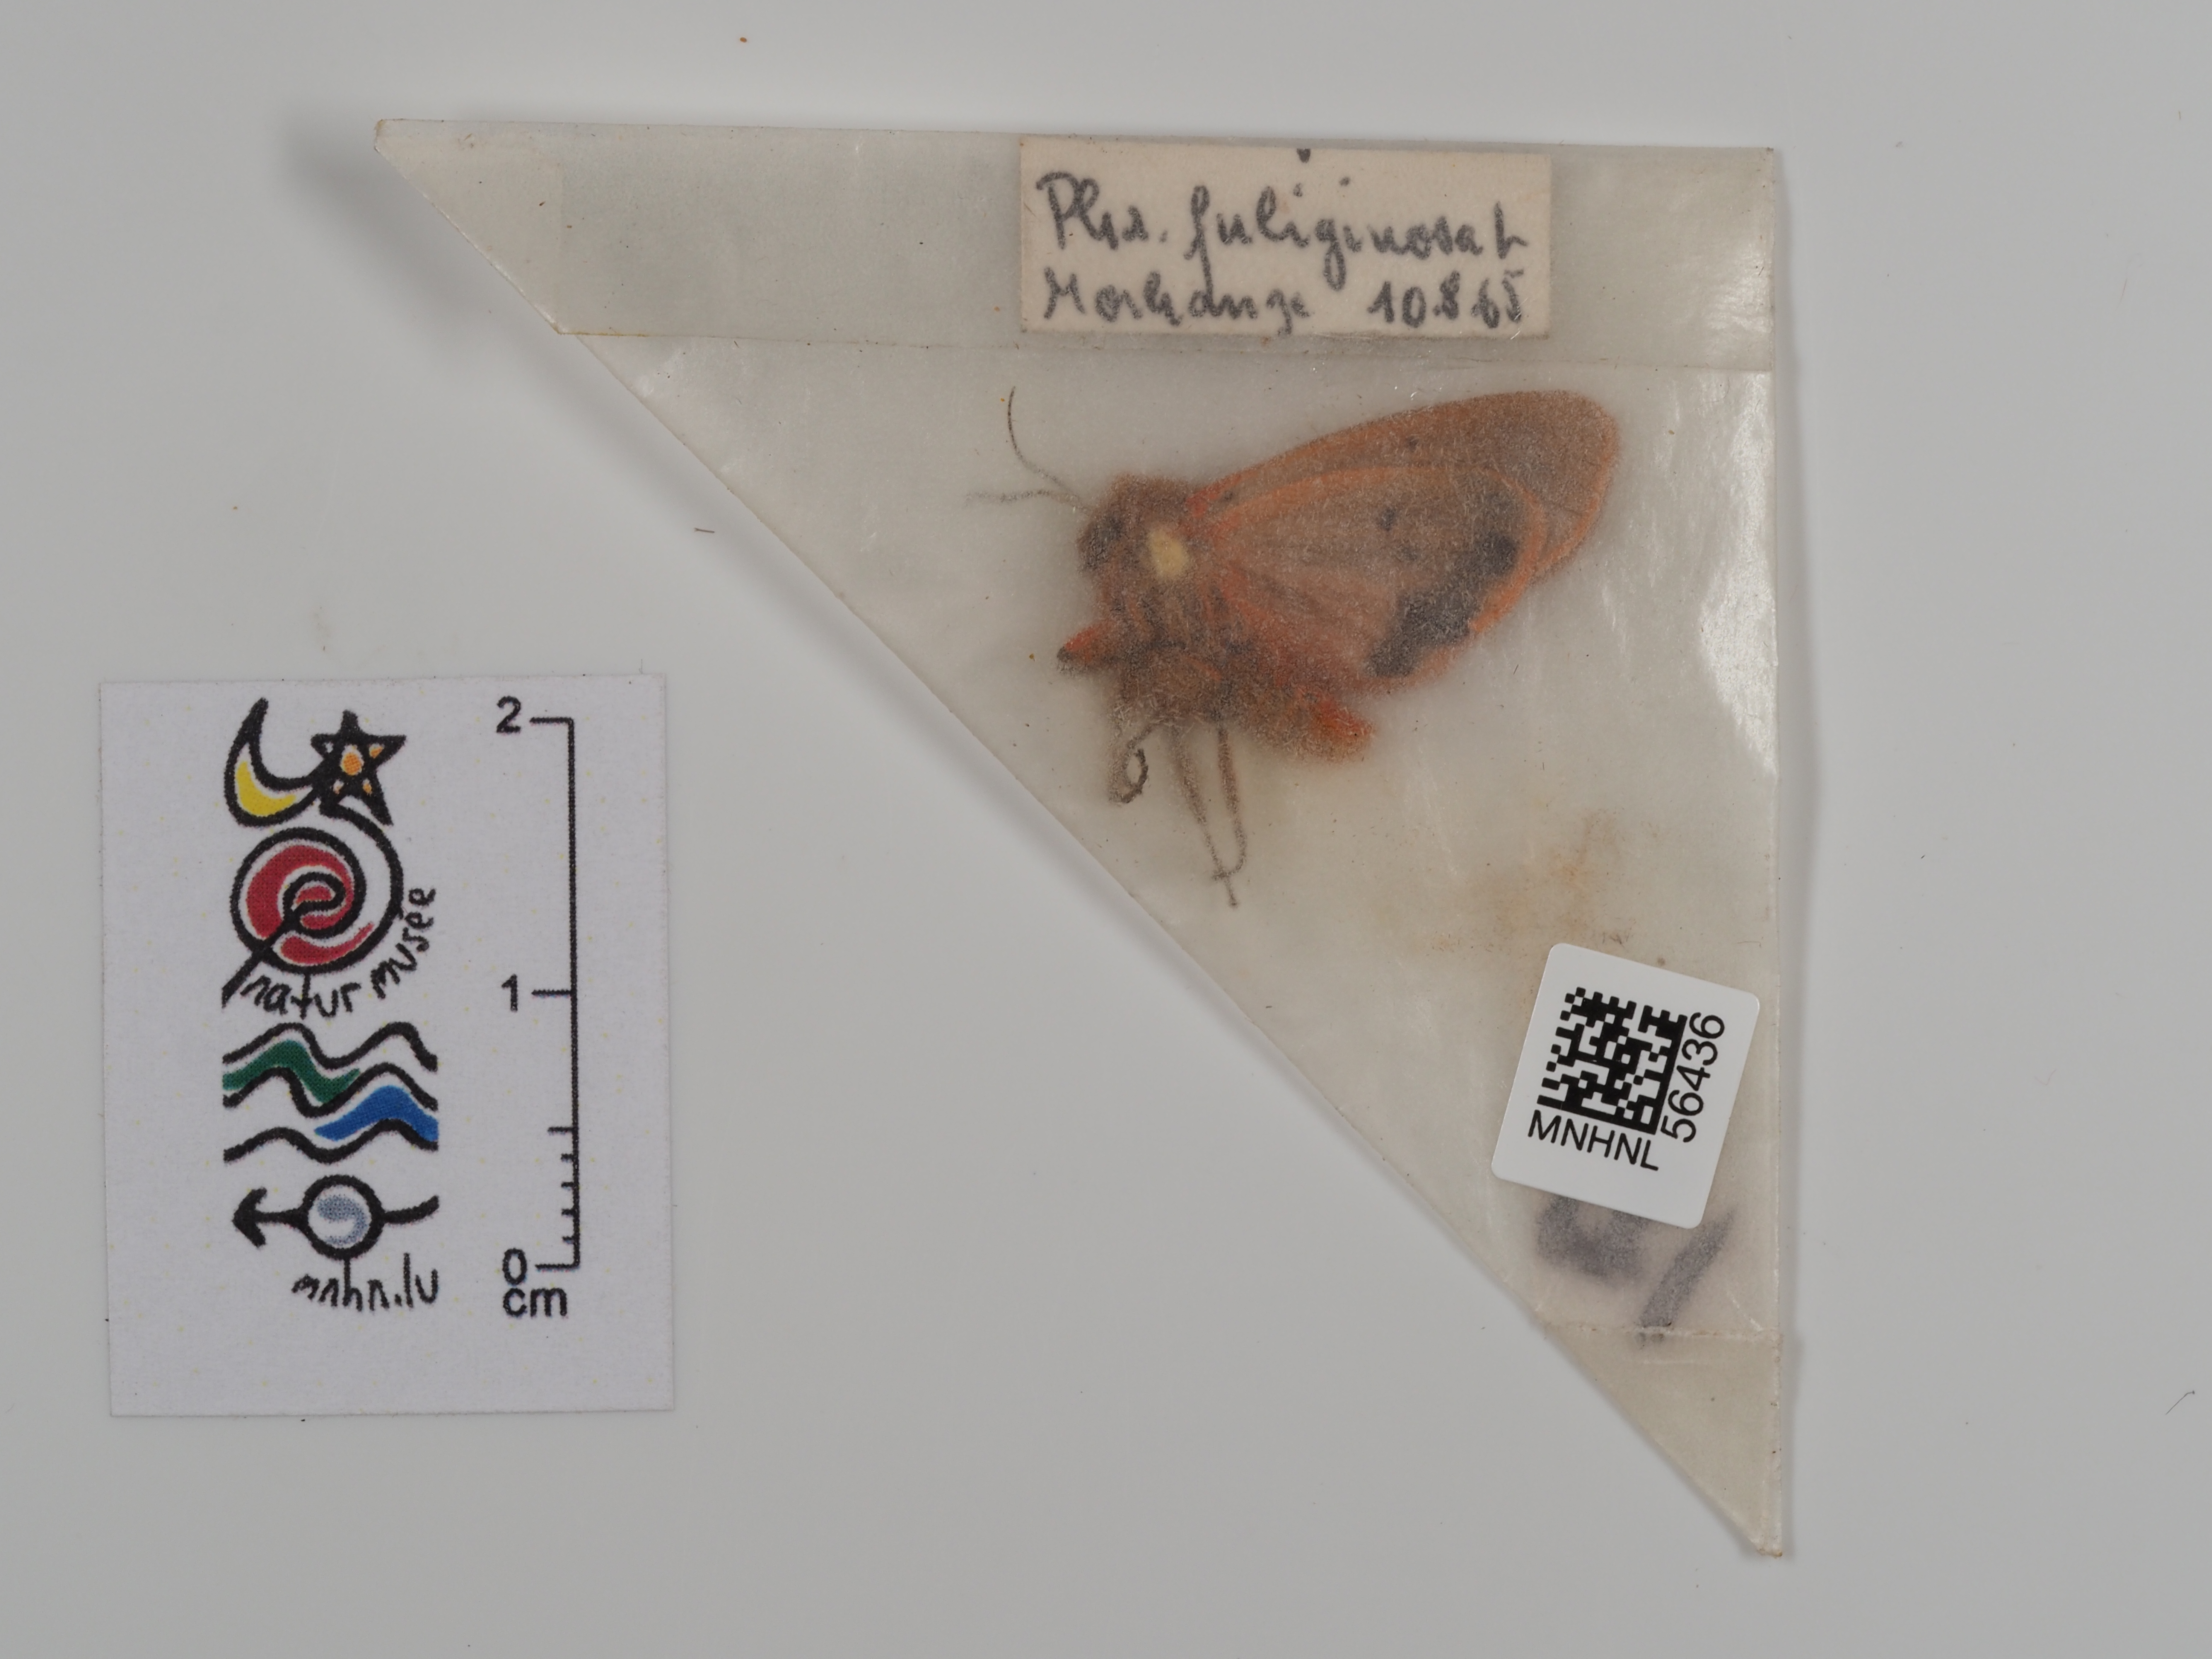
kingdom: Animalia
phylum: Arthropoda
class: Insecta
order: Lepidoptera
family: Erebidae
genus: Phragmatobia
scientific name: Phragmatobia fuliginosa
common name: Ruby tiger
